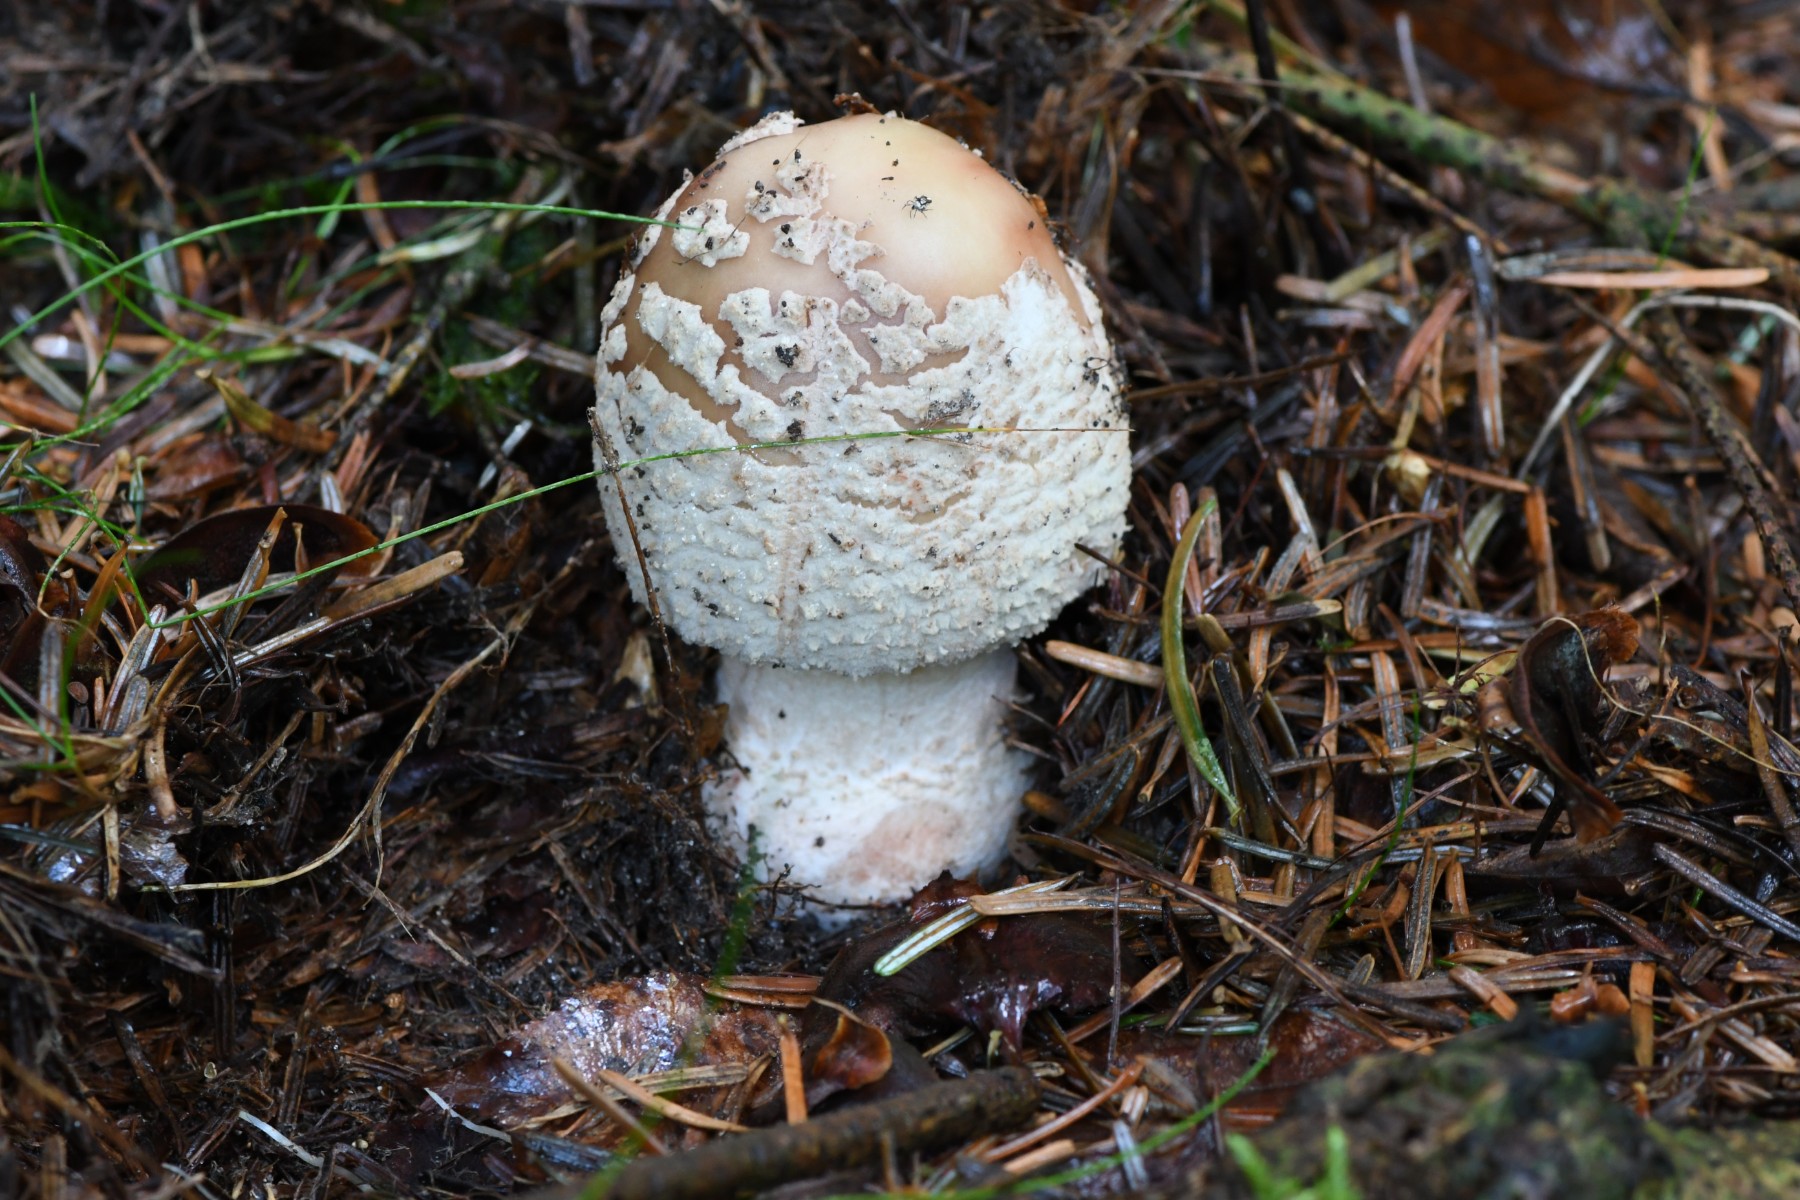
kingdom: Fungi
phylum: Basidiomycota
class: Agaricomycetes
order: Agaricales
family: Amanitaceae
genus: Amanita
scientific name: Amanita rubescens
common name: rødmende fluesvamp
